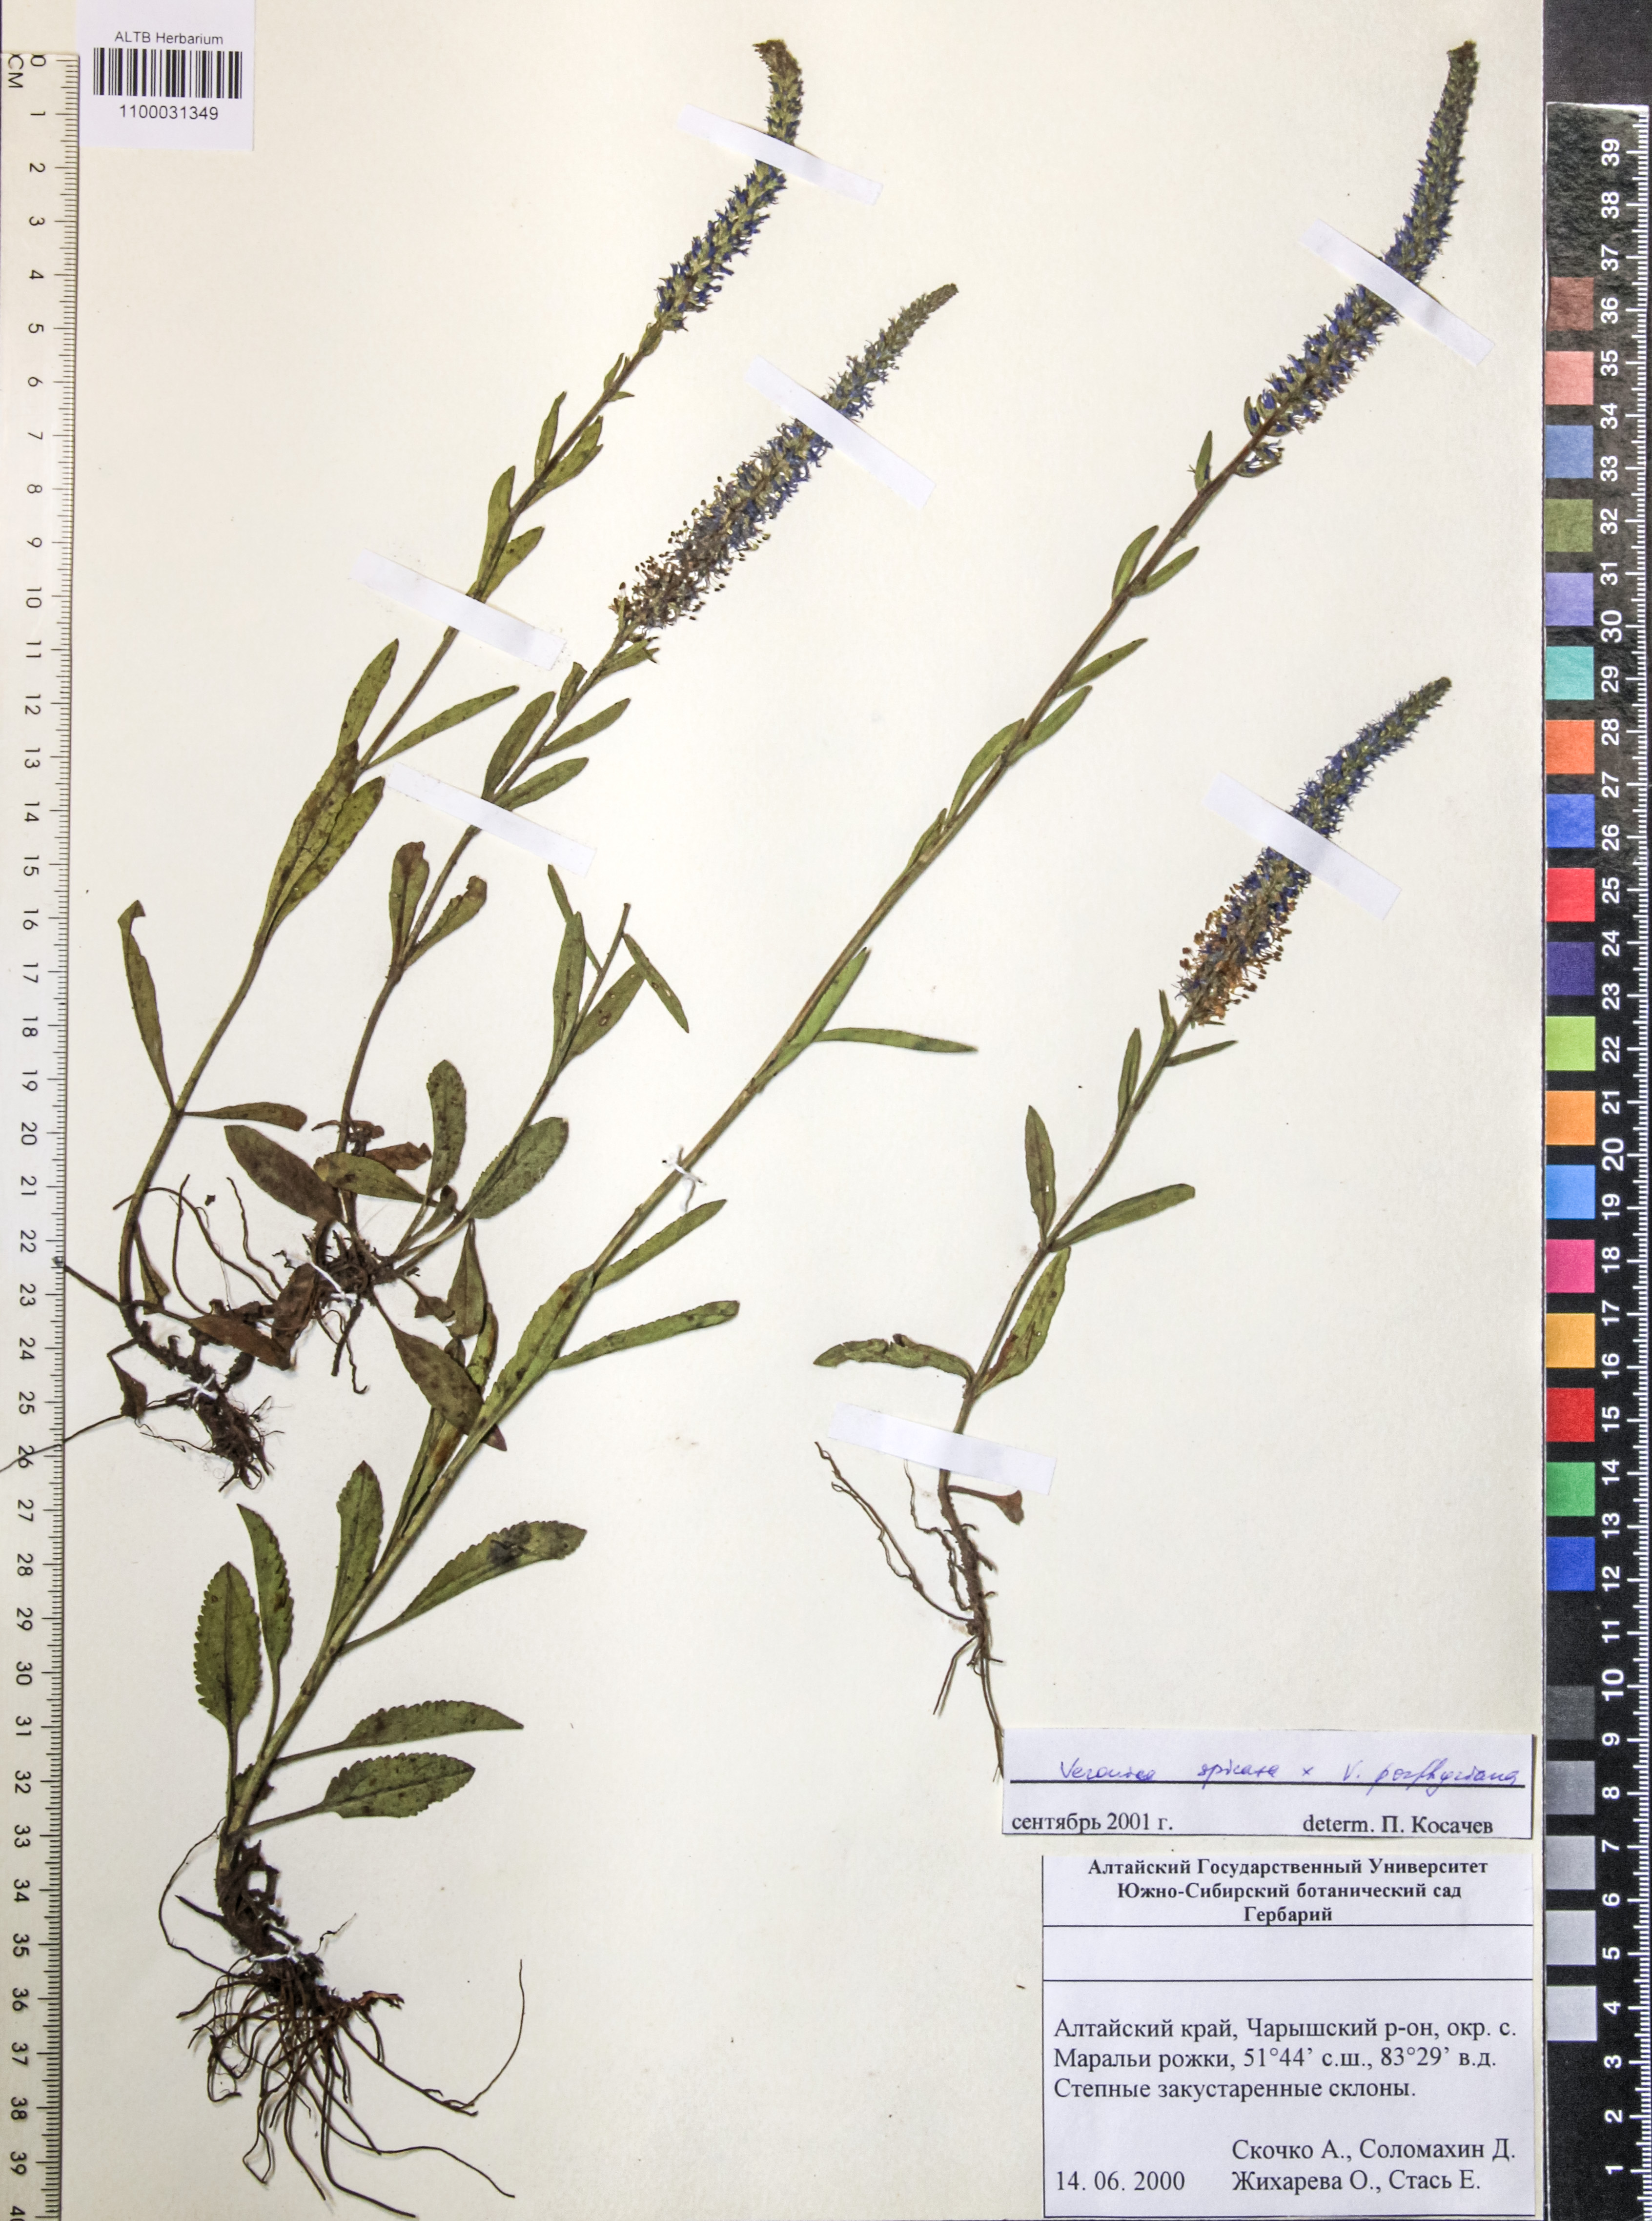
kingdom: Plantae
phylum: Tracheophyta
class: Magnoliopsida
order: Lamiales
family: Plantaginaceae
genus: Veronica
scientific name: Veronica spicata
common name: Spiked speedwell
